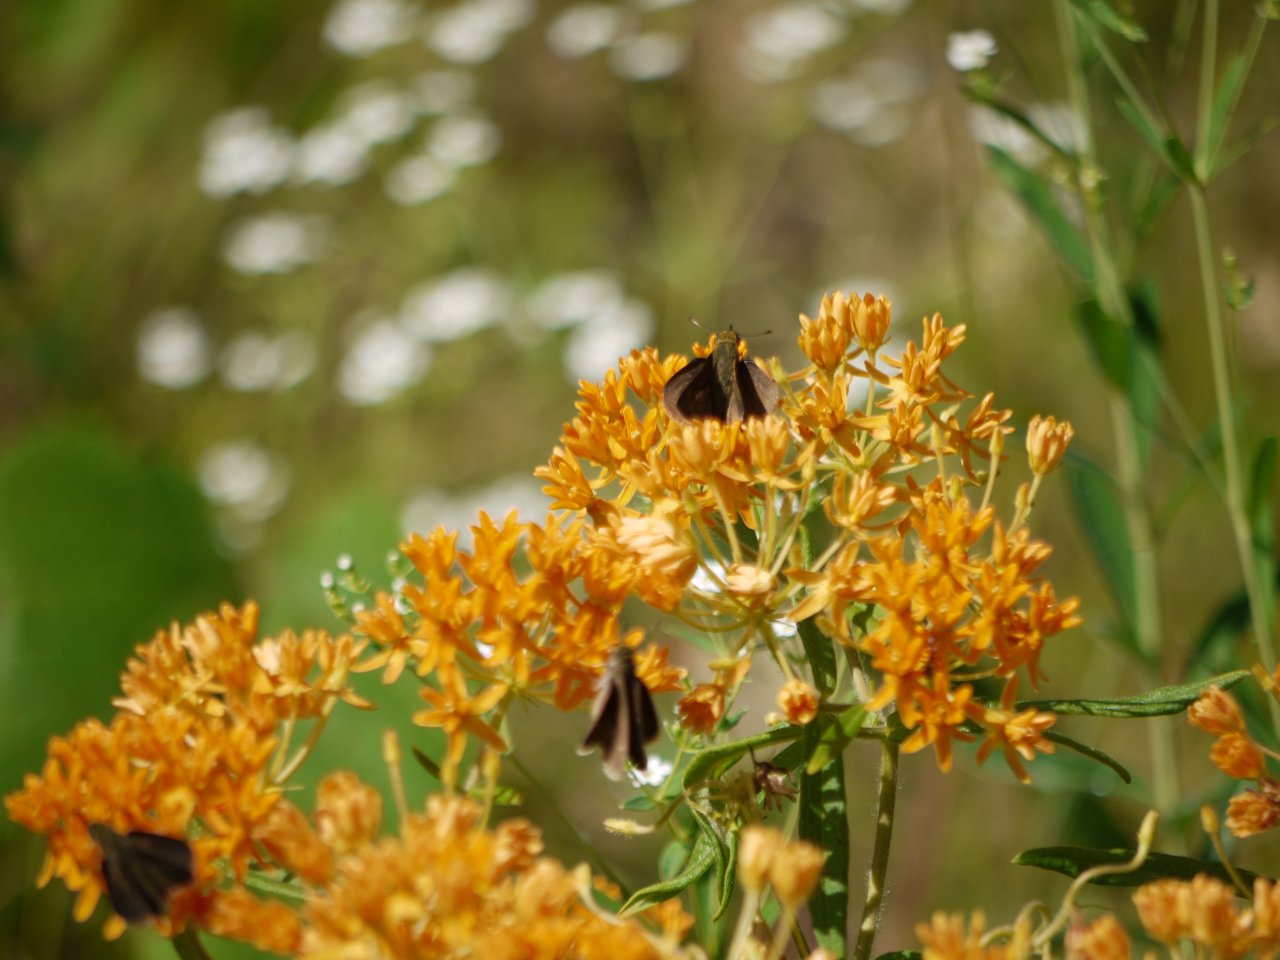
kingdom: Animalia
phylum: Arthropoda
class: Insecta
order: Lepidoptera
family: Hesperiidae
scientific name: Hesperiidae
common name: Skippers
